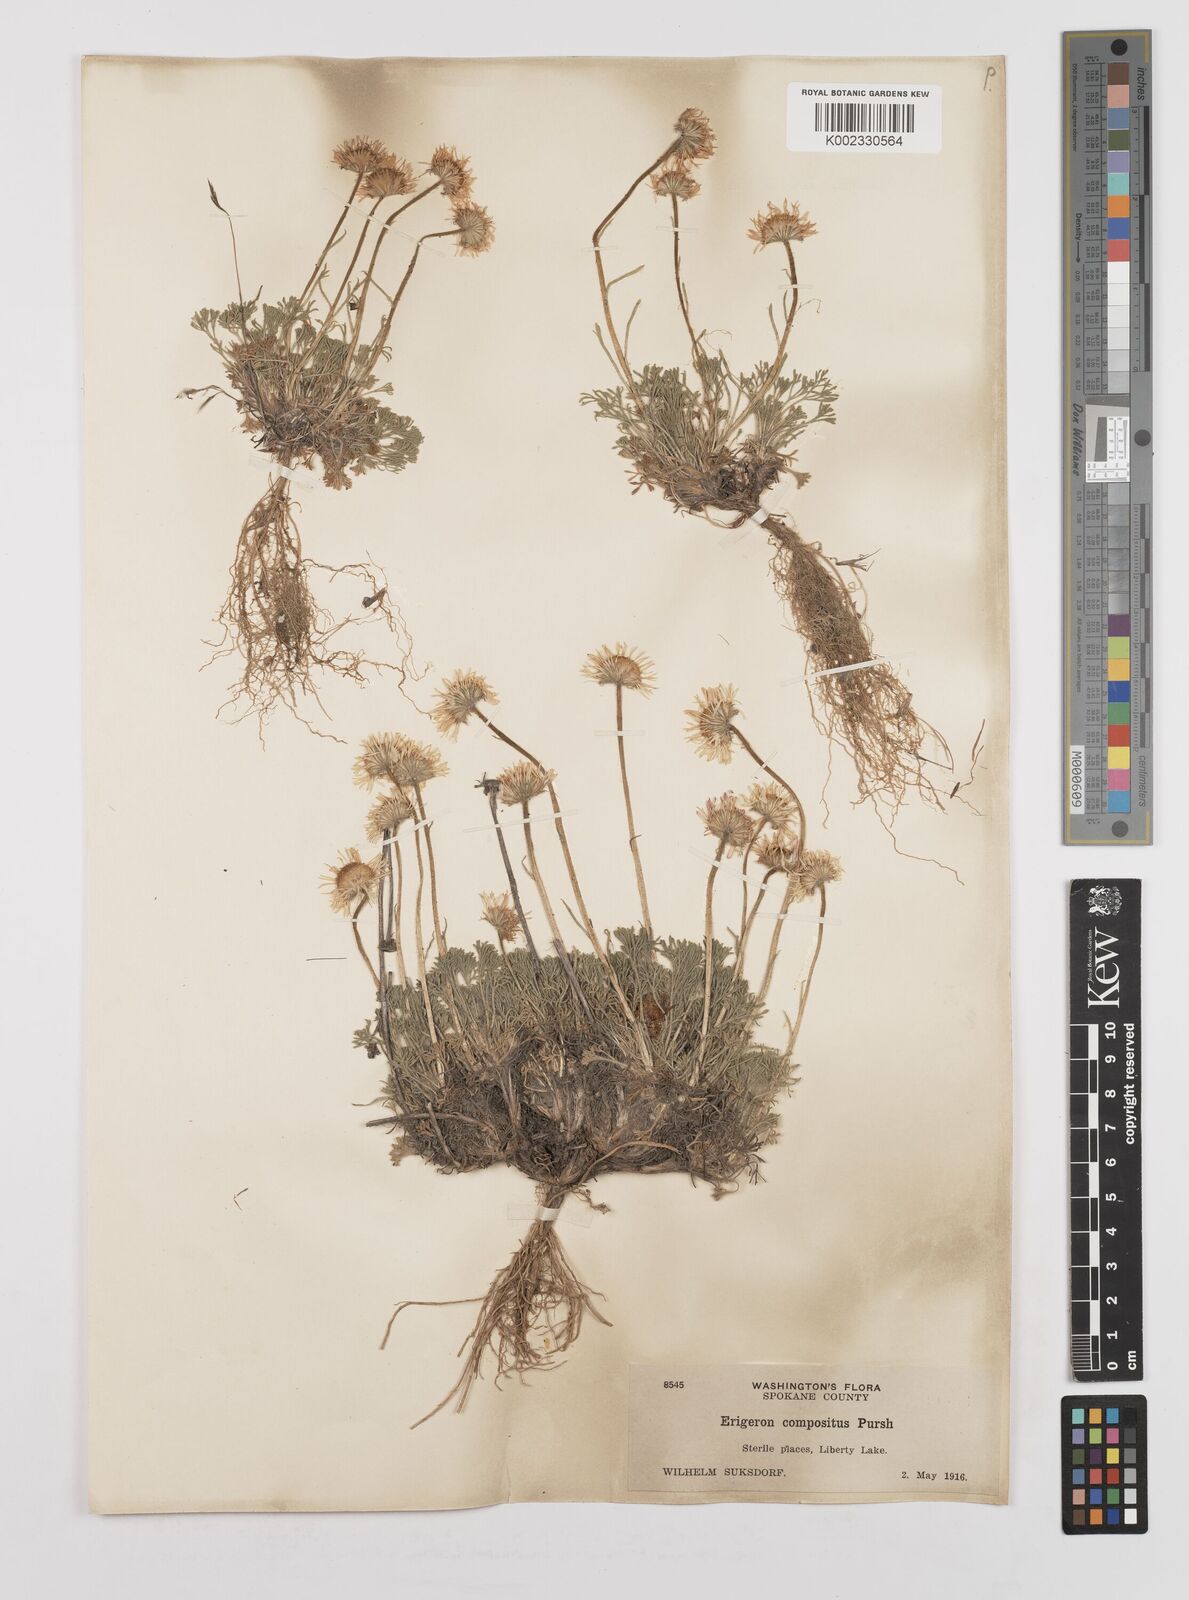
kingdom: Plantae
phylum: Tracheophyta
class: Magnoliopsida
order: Asterales
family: Asteraceae
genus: Erigeron
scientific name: Erigeron compositus
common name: Dwarf mountain fleabane
